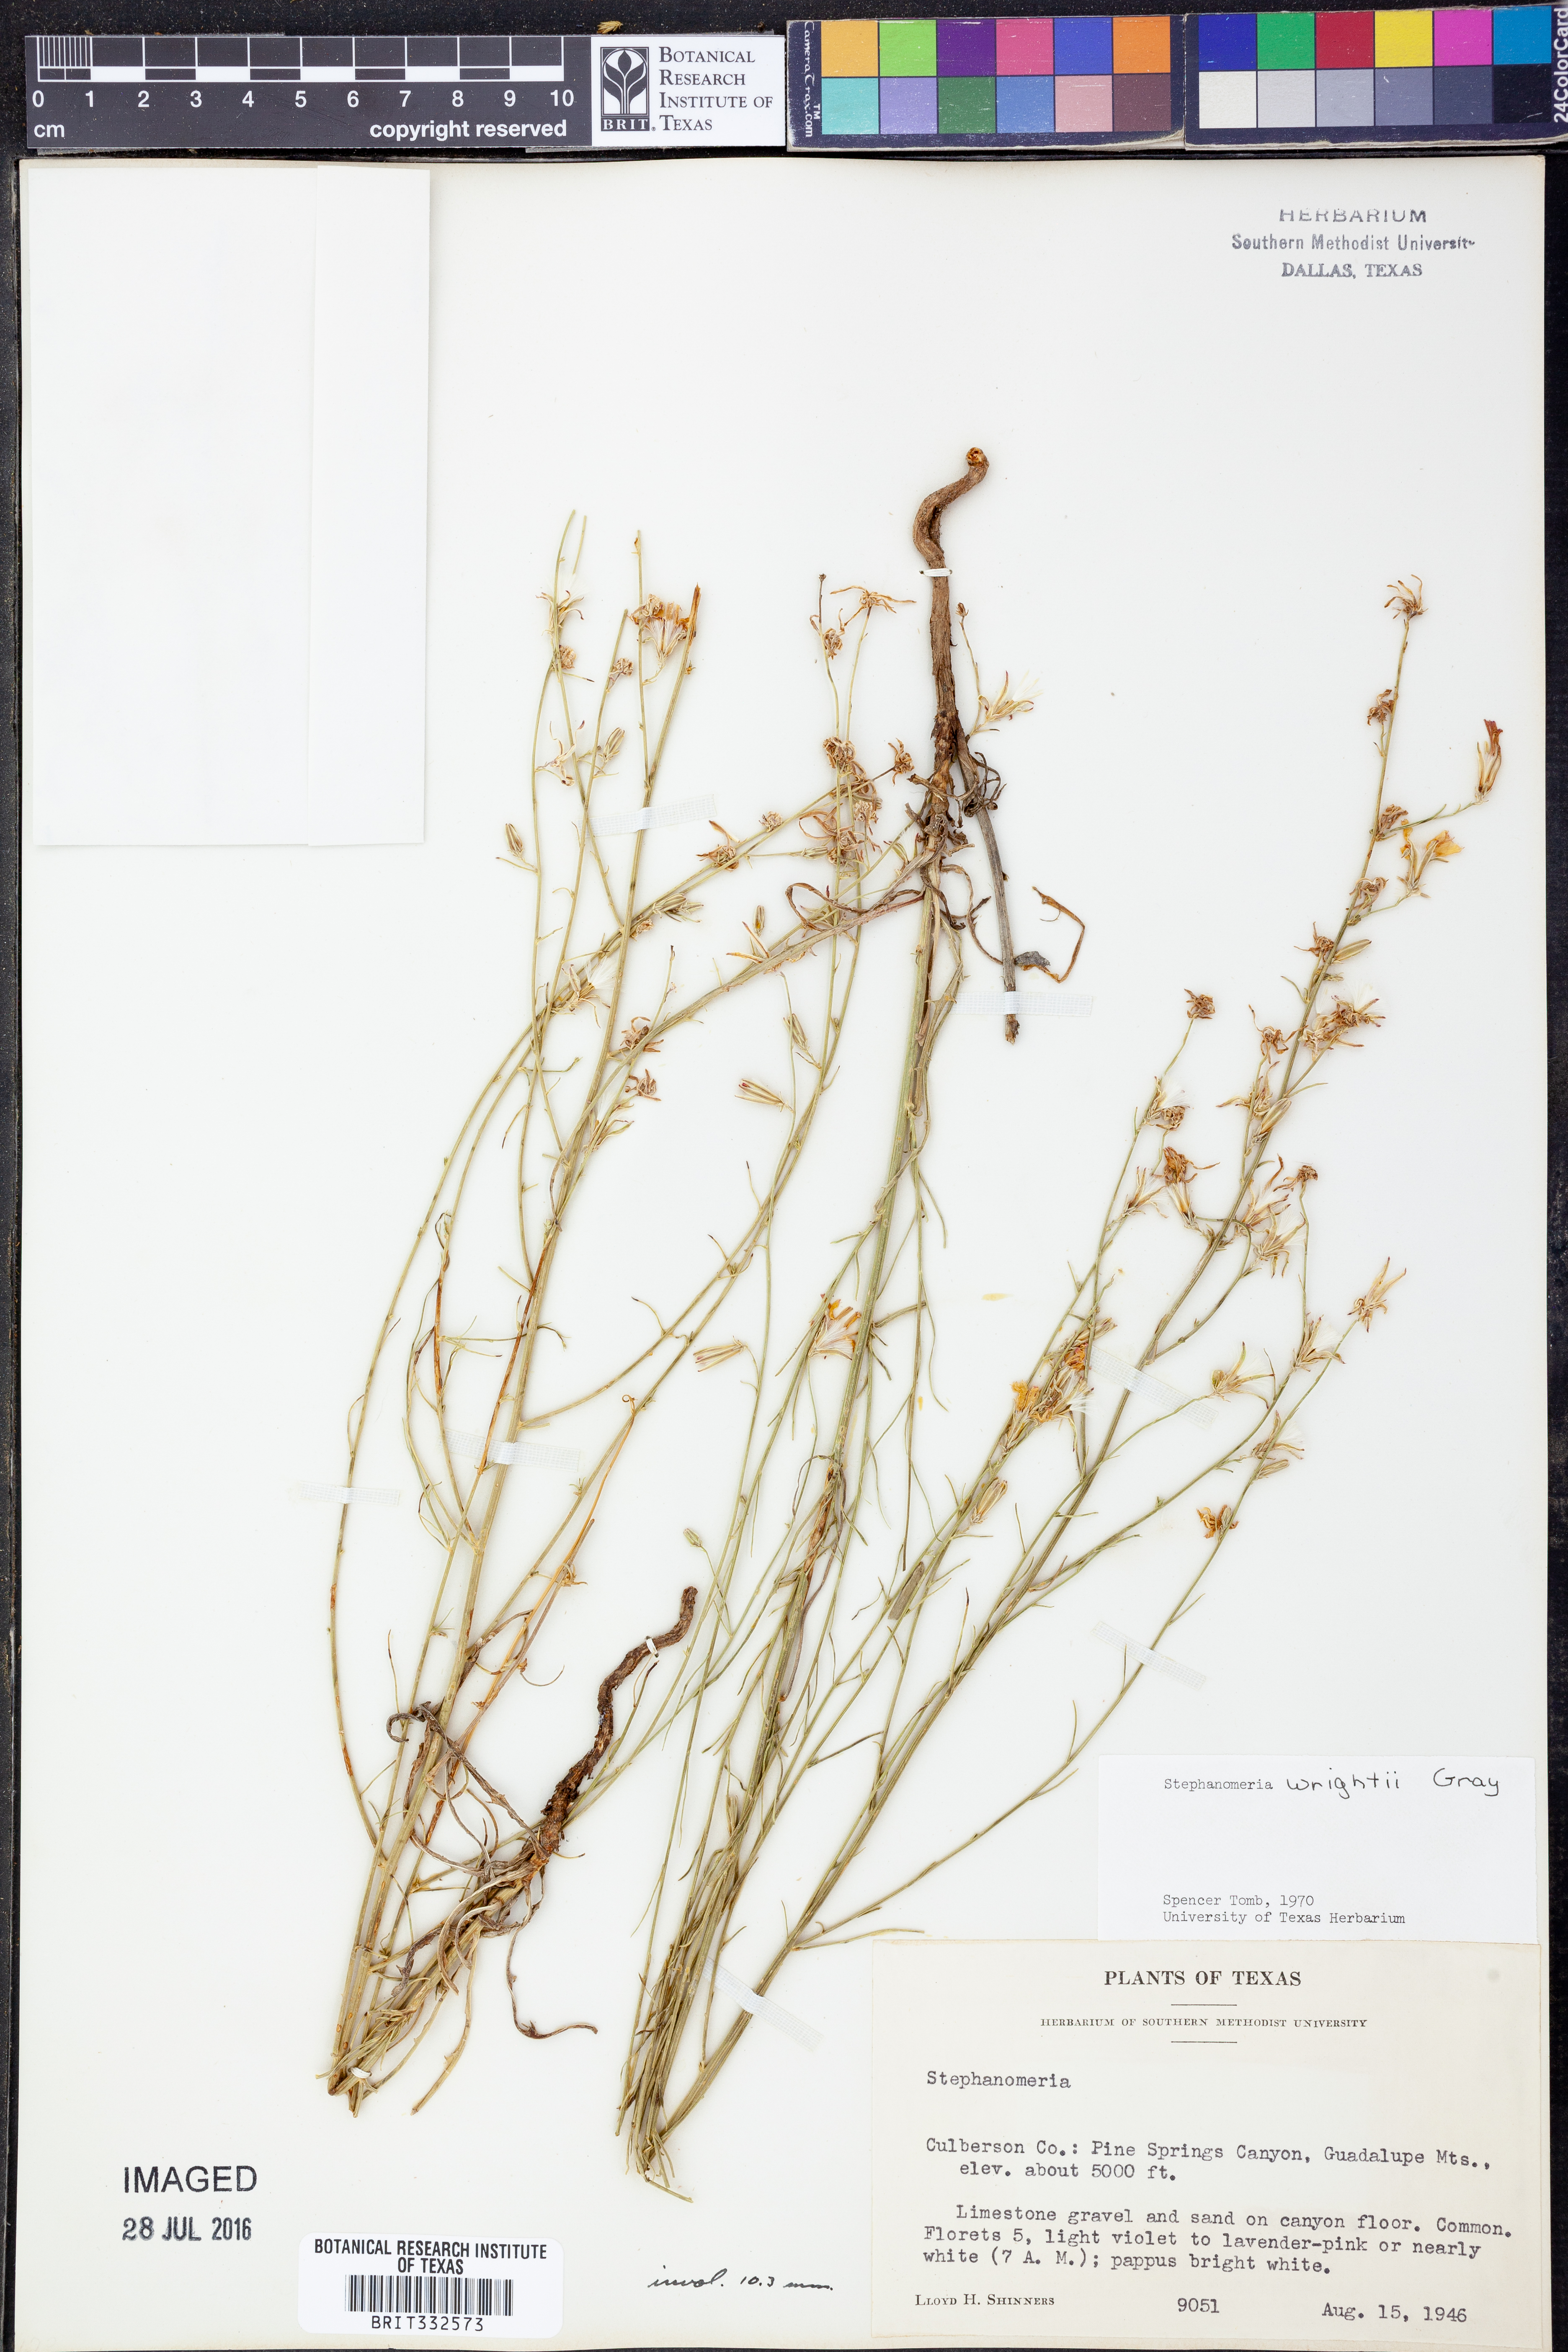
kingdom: Plantae
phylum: Tracheophyta
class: Magnoliopsida
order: Asterales
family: Asteraceae
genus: Stephanomeria
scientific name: Stephanomeria tenuifolia
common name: Slender wirelettuce
